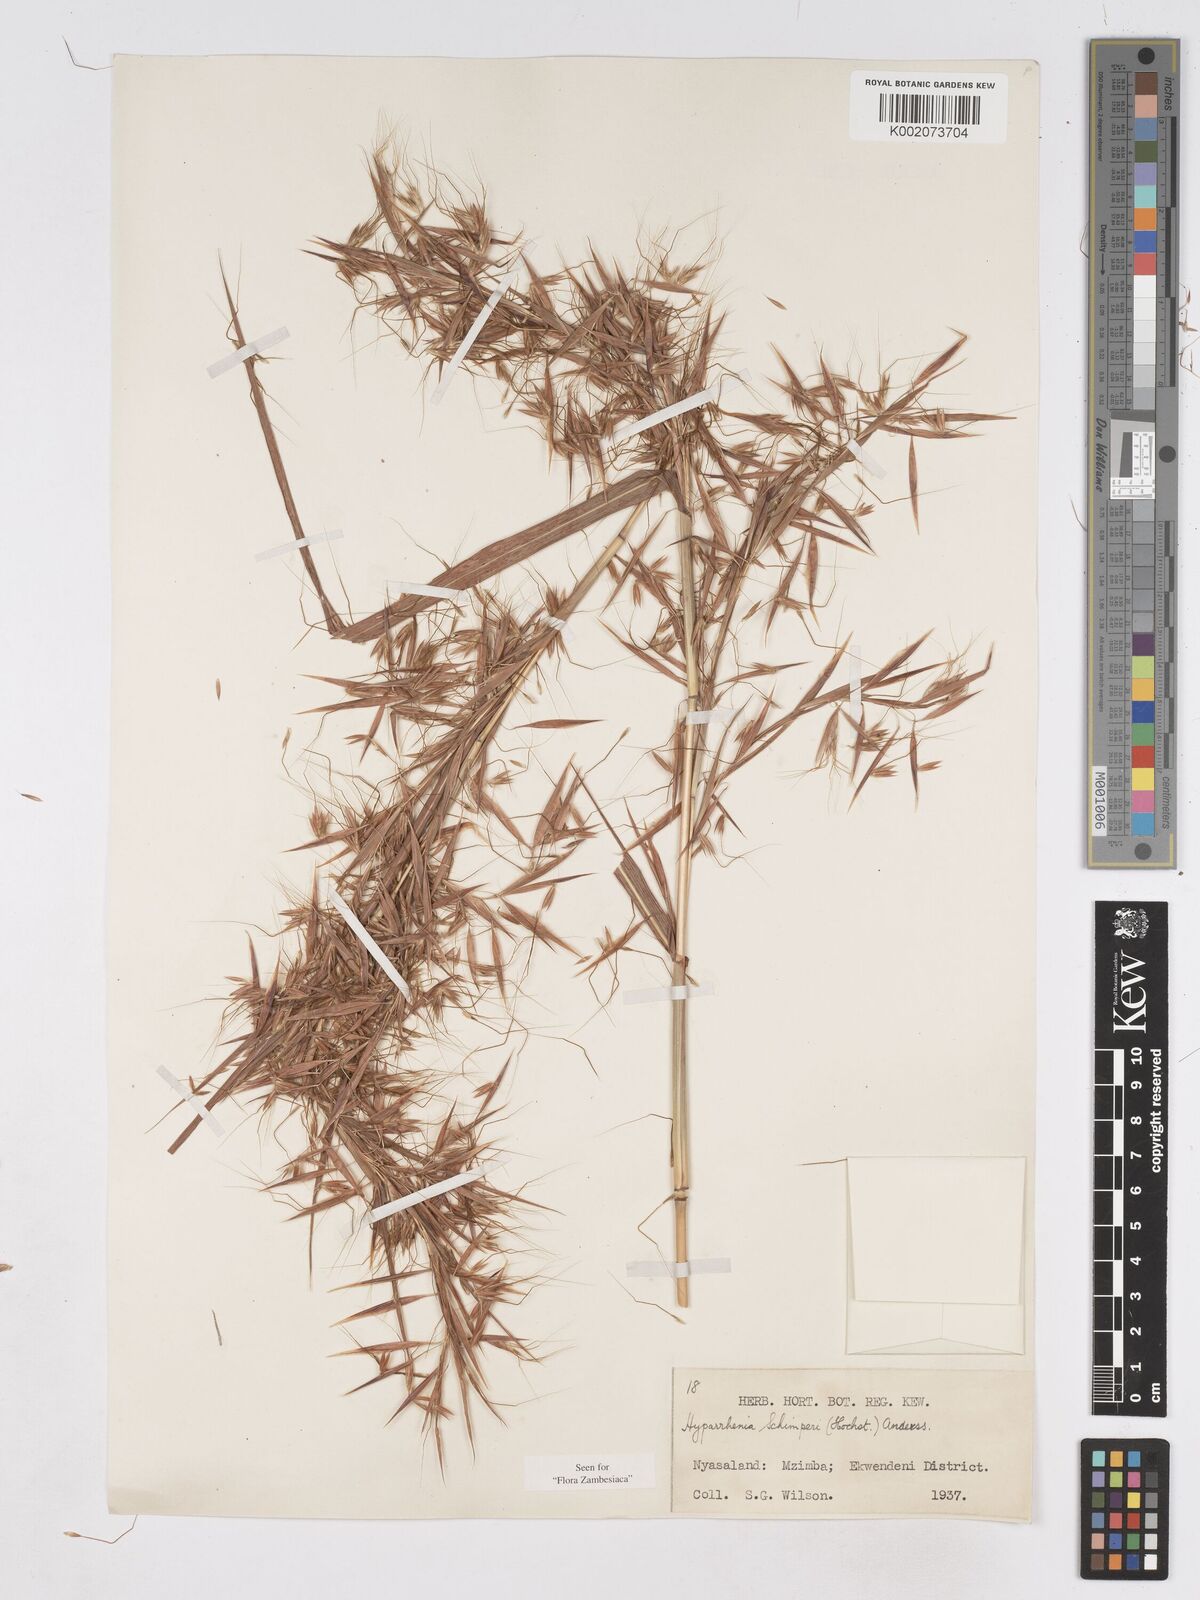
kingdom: Plantae
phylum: Tracheophyta
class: Liliopsida
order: Poales
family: Poaceae
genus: Hyparrhenia
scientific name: Hyparrhenia schimperi
